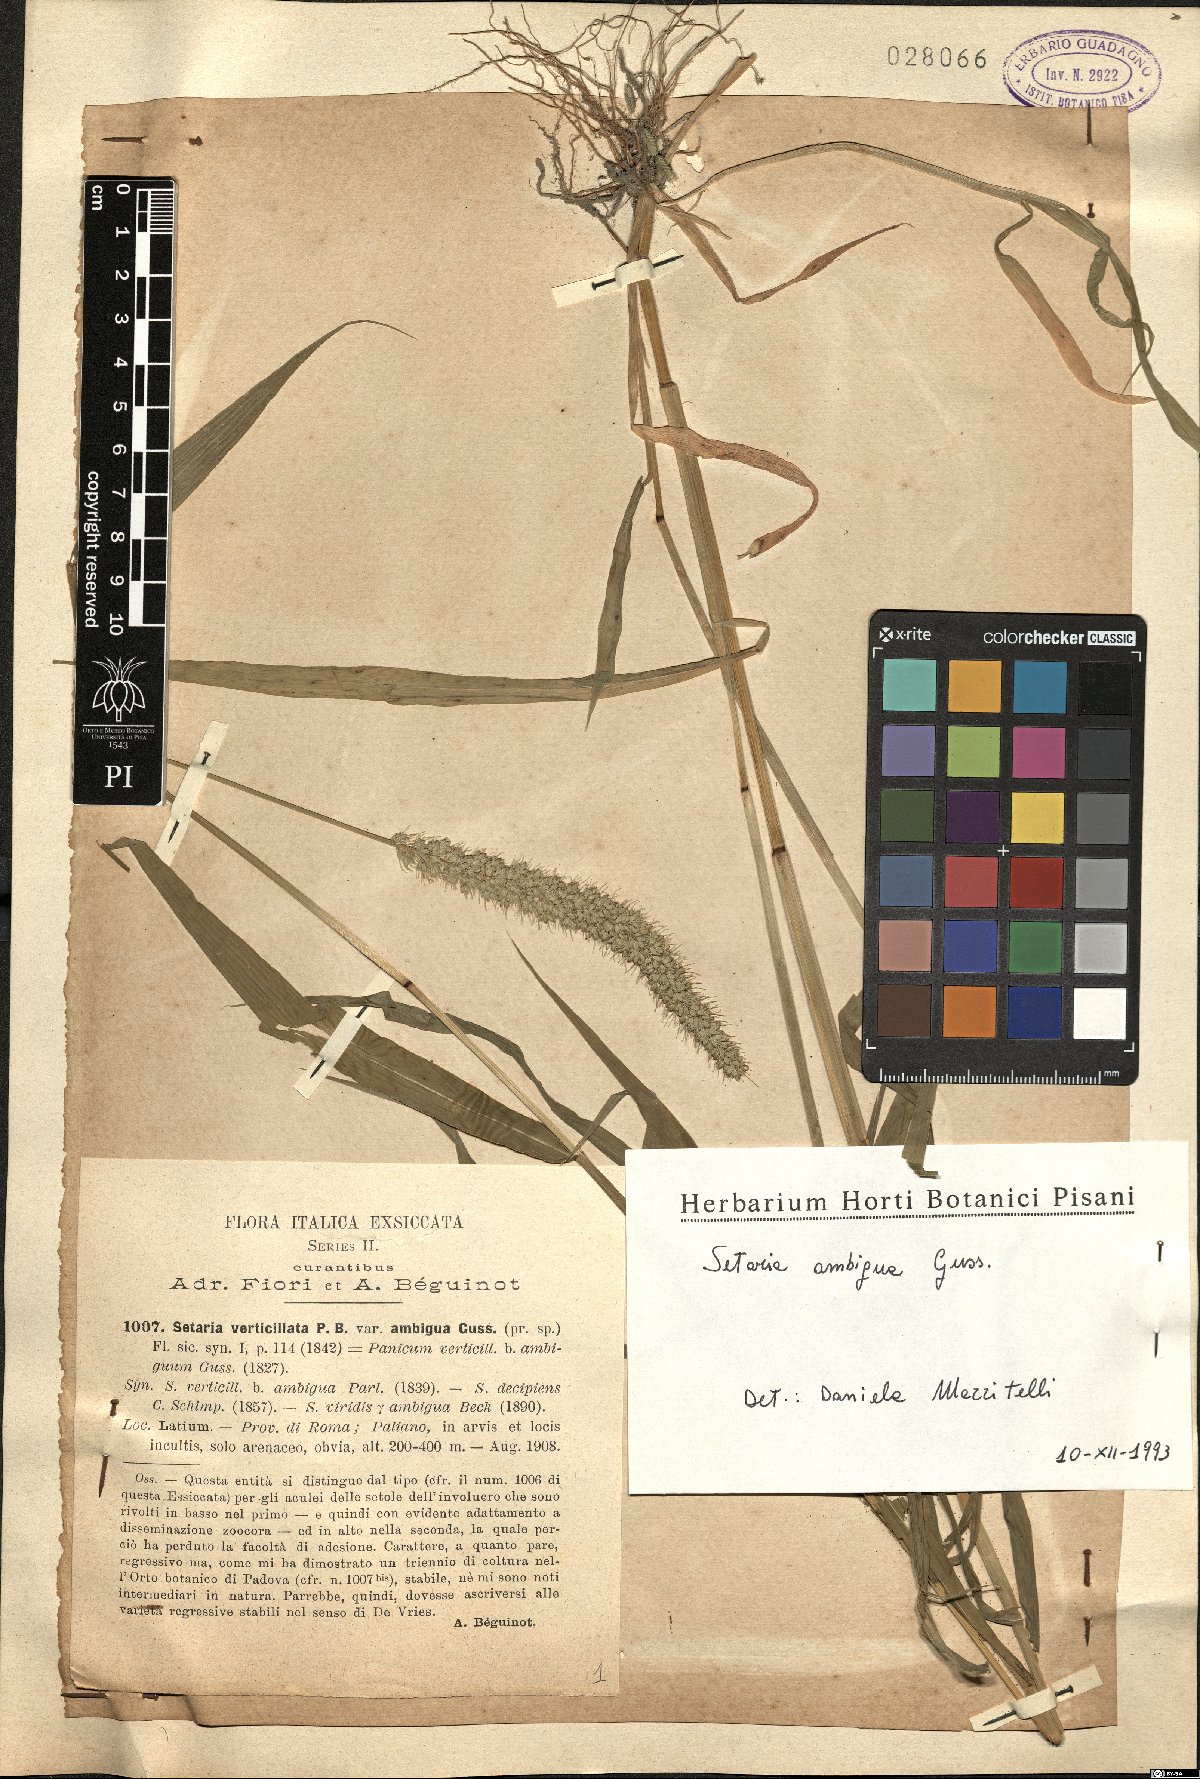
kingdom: Plantae
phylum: Tracheophyta
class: Liliopsida
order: Poales
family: Poaceae
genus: Setaria
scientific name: Setaria verticillata
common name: Hooked bristlegrass
